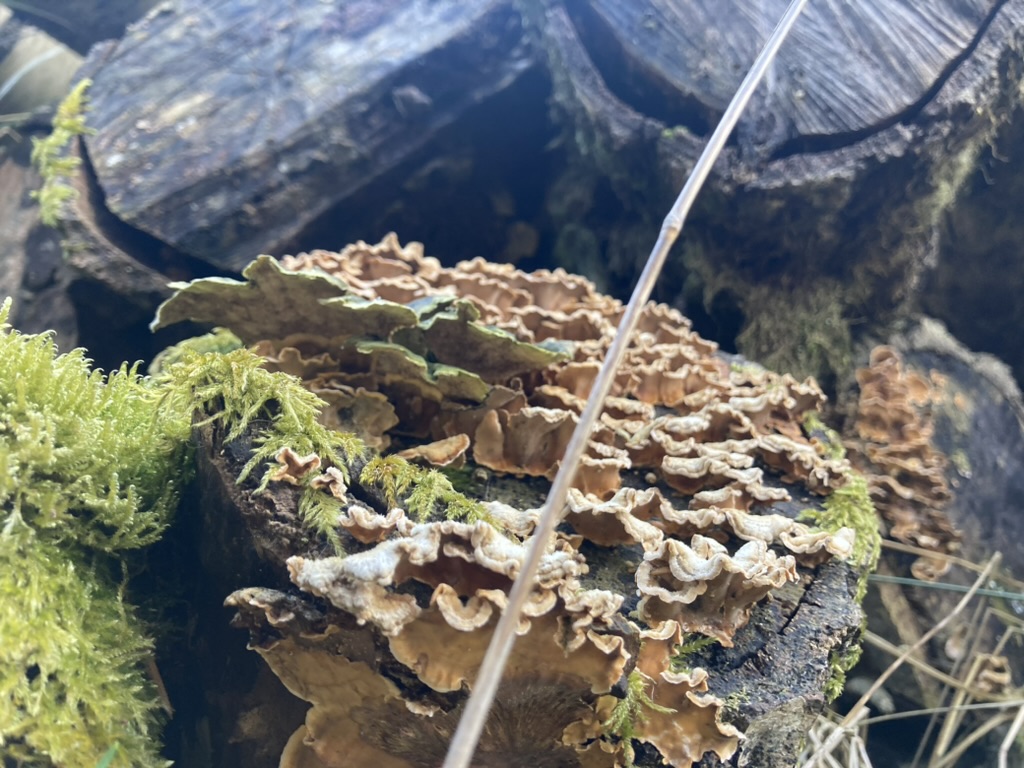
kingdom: Fungi
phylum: Basidiomycota
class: Agaricomycetes
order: Polyporales
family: Polyporaceae
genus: Trametes
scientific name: Trametes versicolor
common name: broget læderporesvamp
